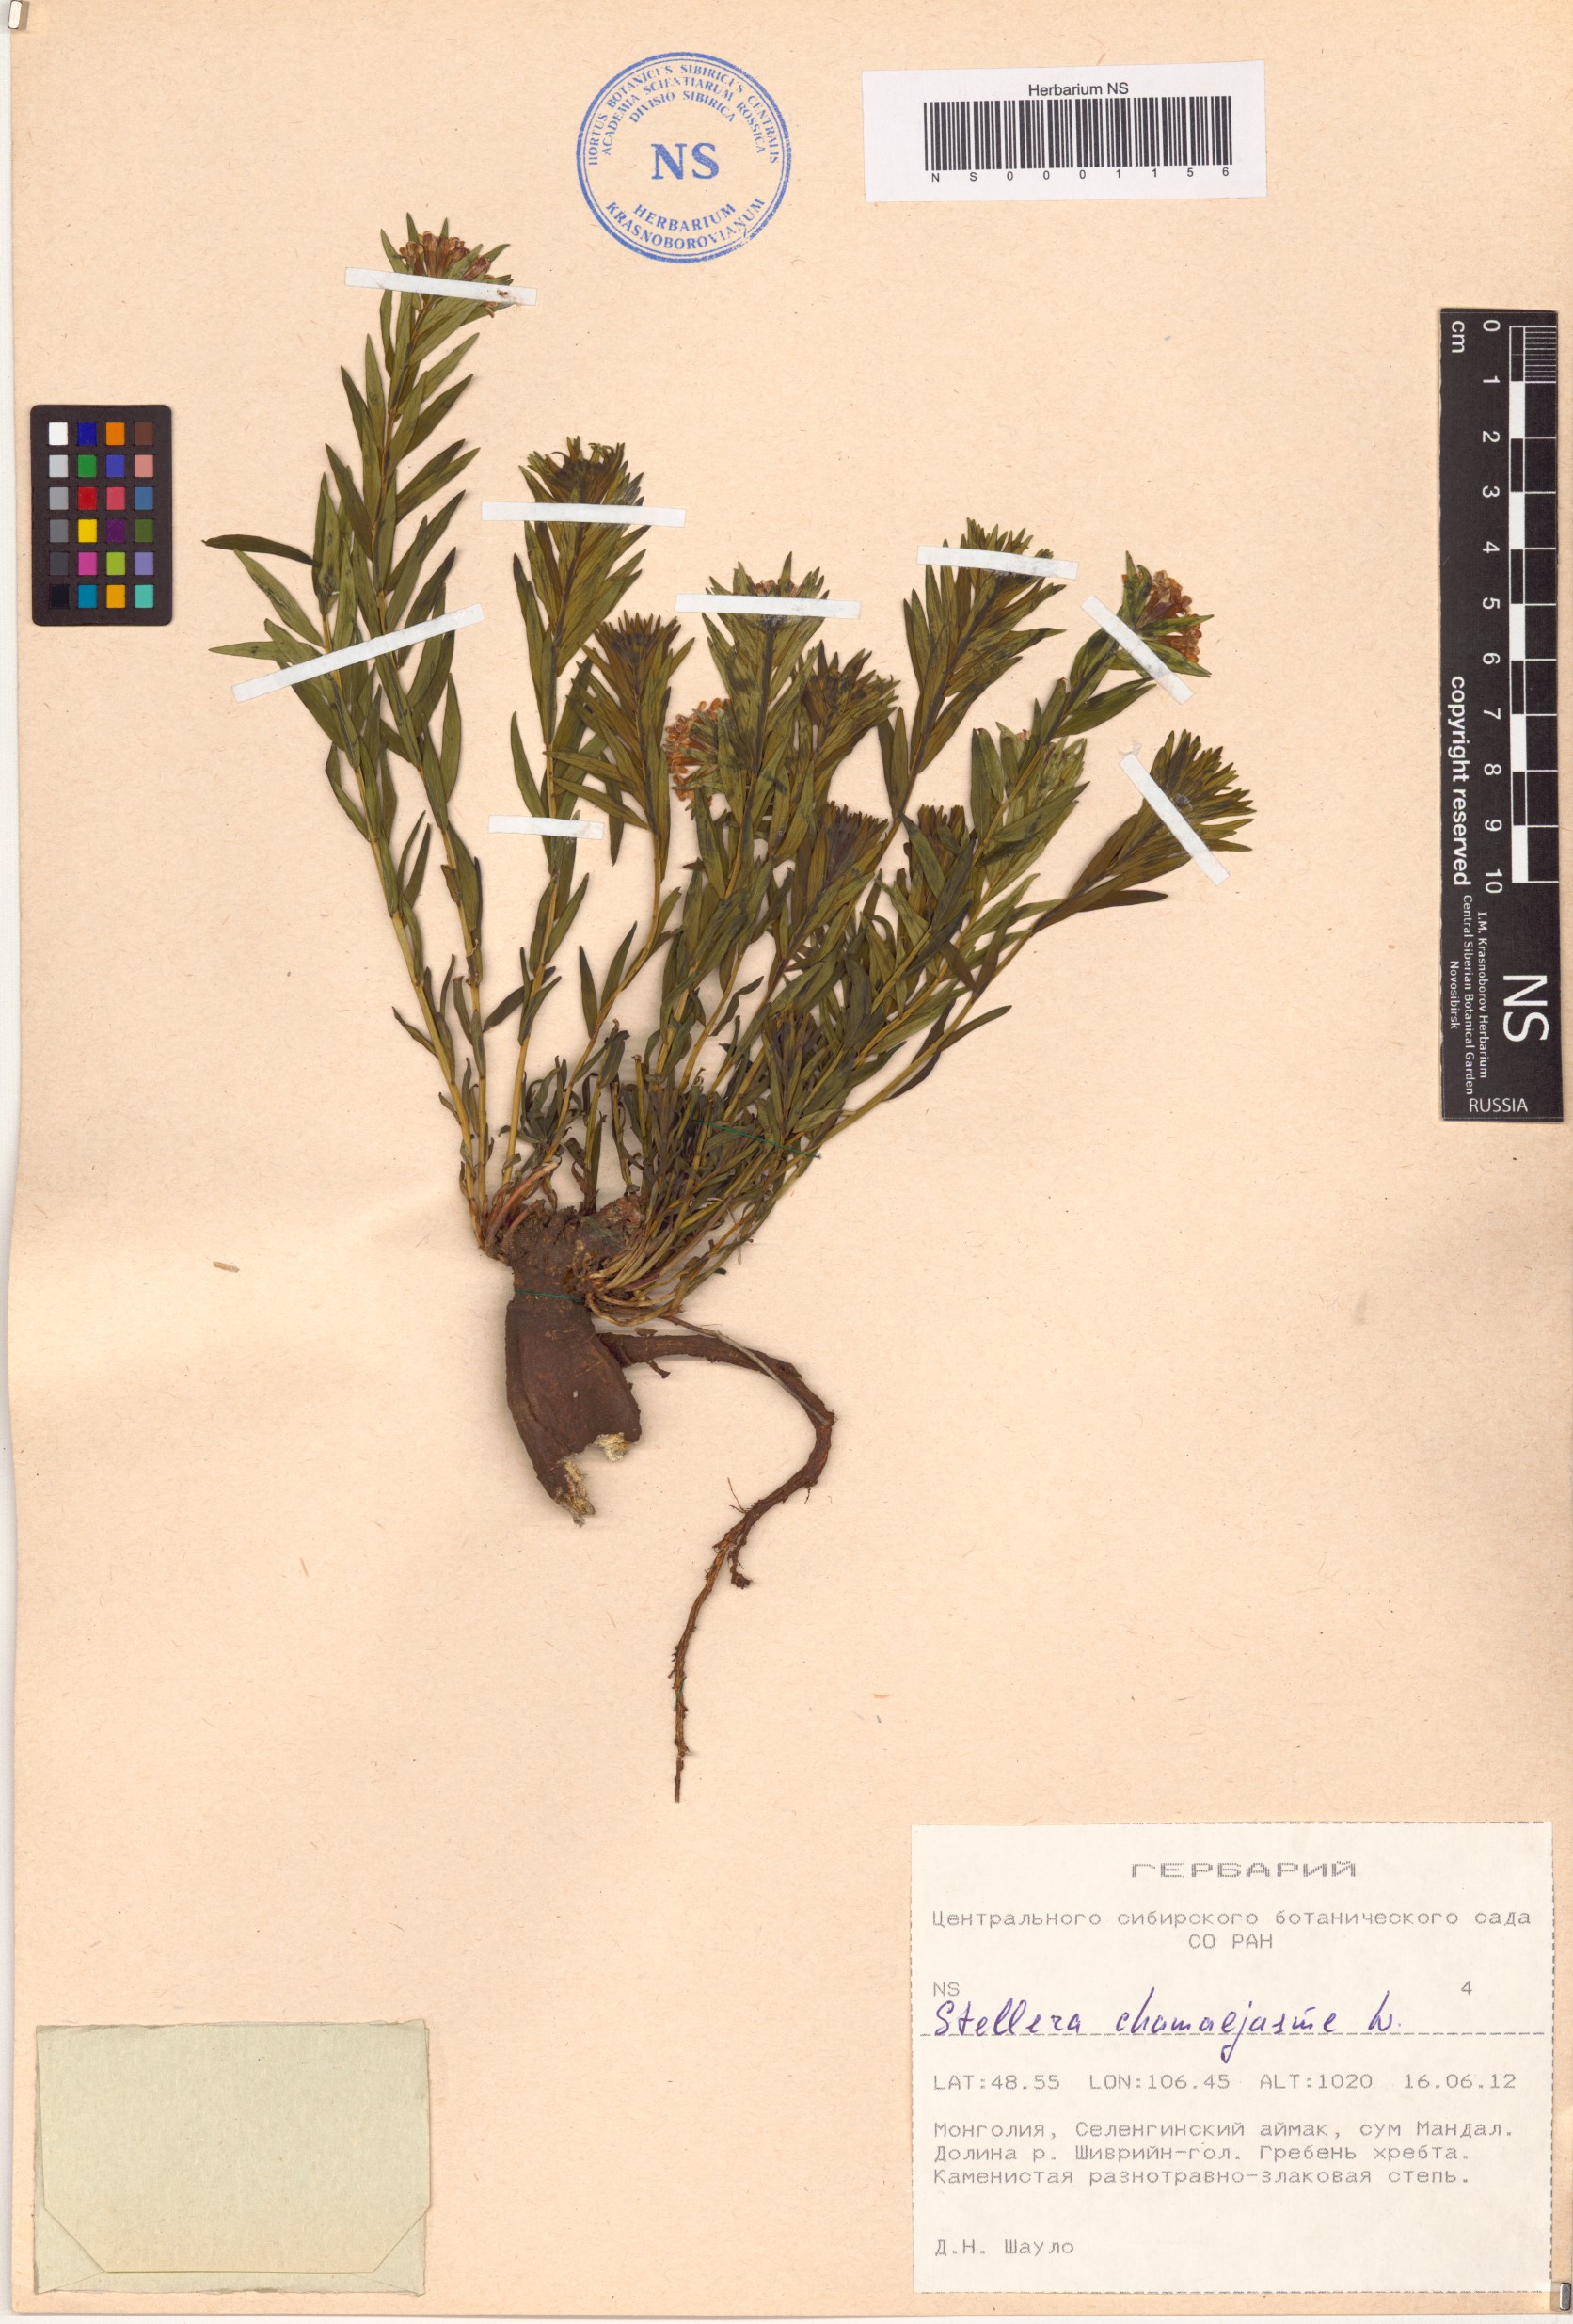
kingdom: Plantae
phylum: Tracheophyta
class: Magnoliopsida
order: Malvales
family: Thymelaeaceae
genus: Stellera
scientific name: Stellera chamaejasme
